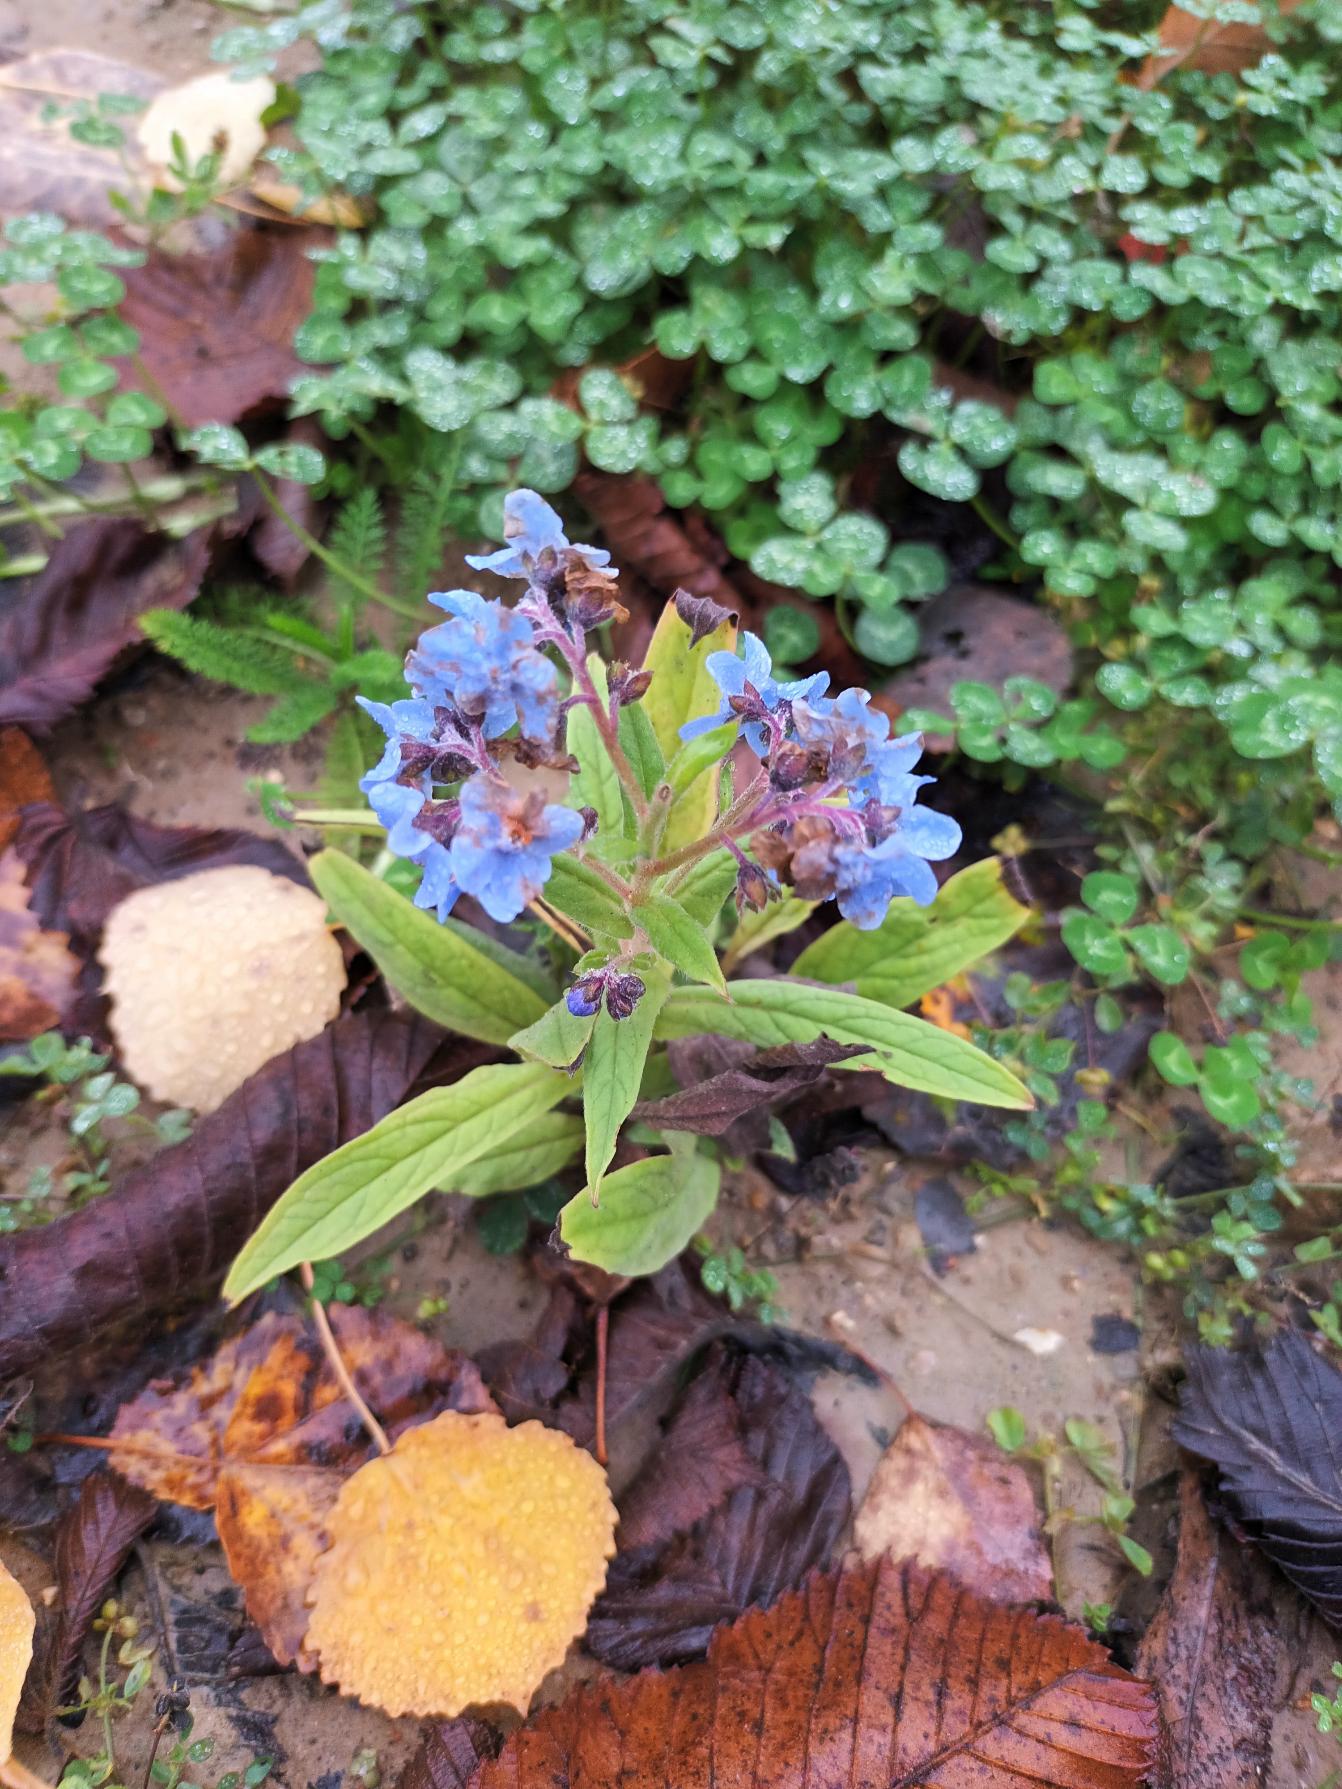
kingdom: Plantae
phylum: Tracheophyta
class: Magnoliopsida
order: Boraginales
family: Boraginaceae
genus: Cynoglossum
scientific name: Cynoglossum amabile
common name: Kinesisk hundetunge
